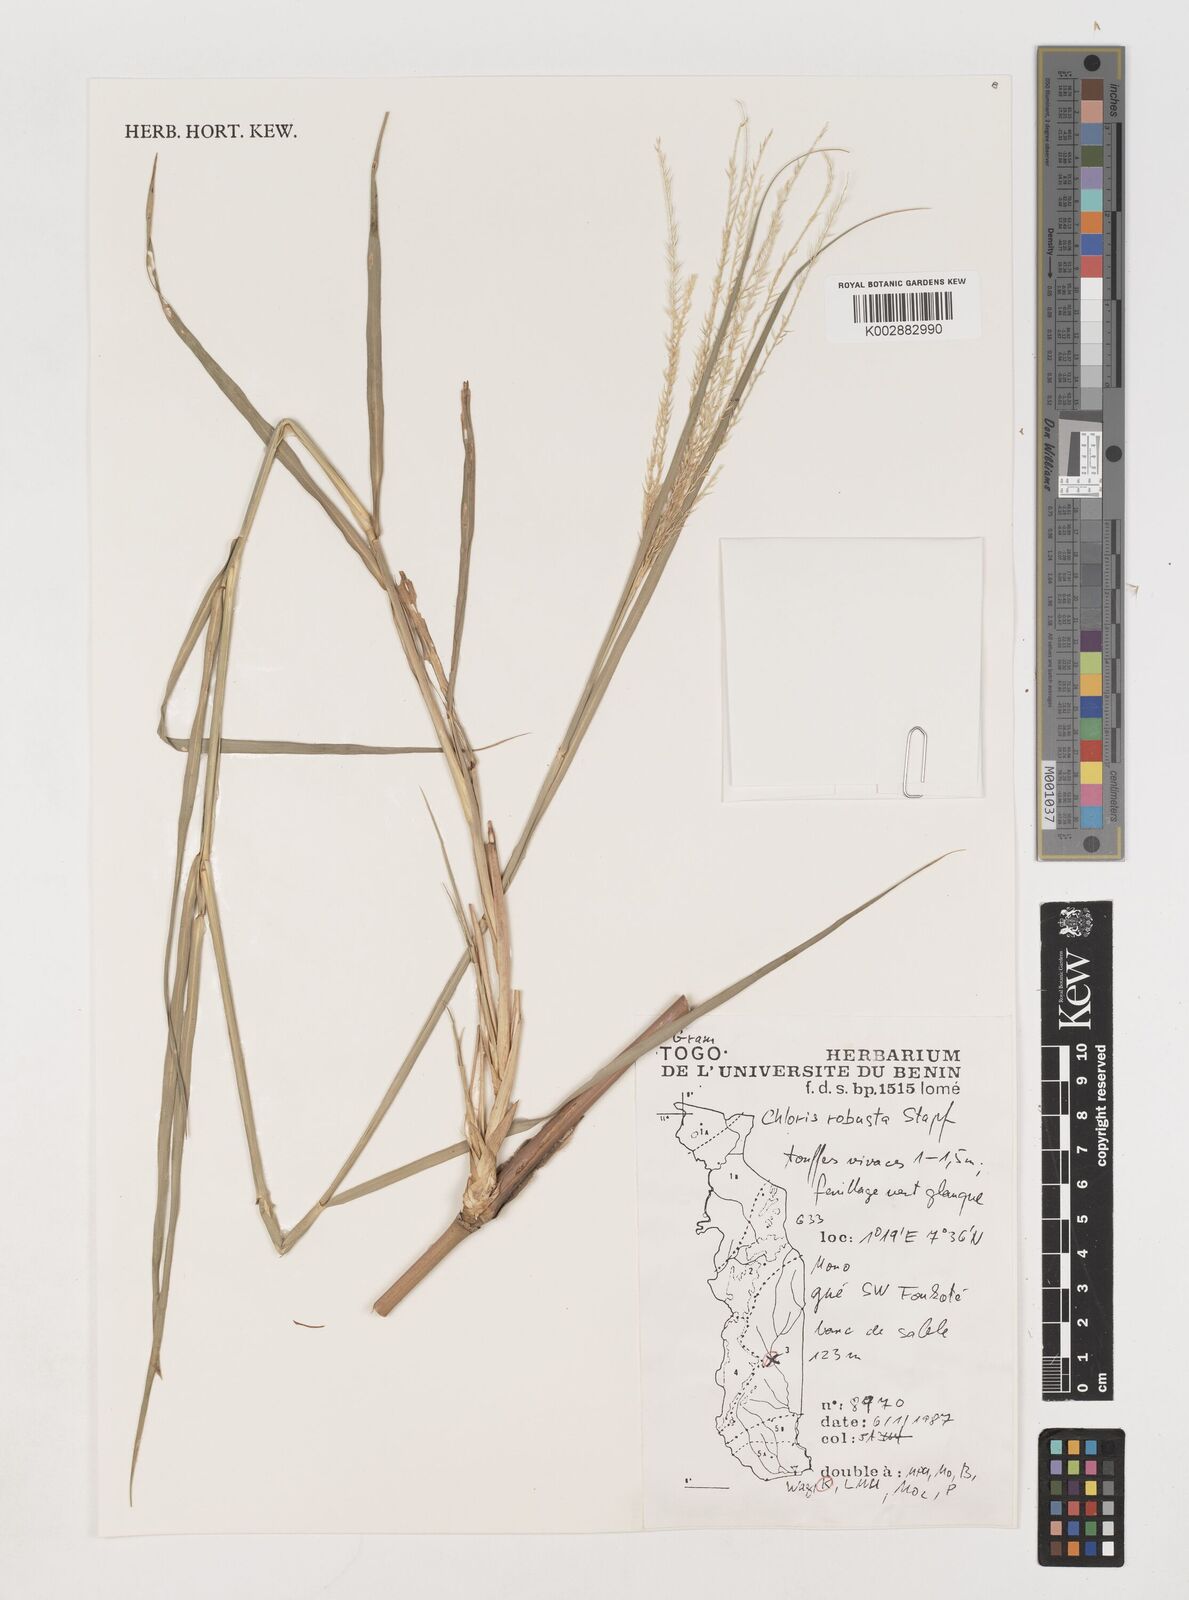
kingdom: Plantae
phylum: Tracheophyta
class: Liliopsida
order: Poales
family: Poaceae
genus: Chloris
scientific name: Chloris robusta
